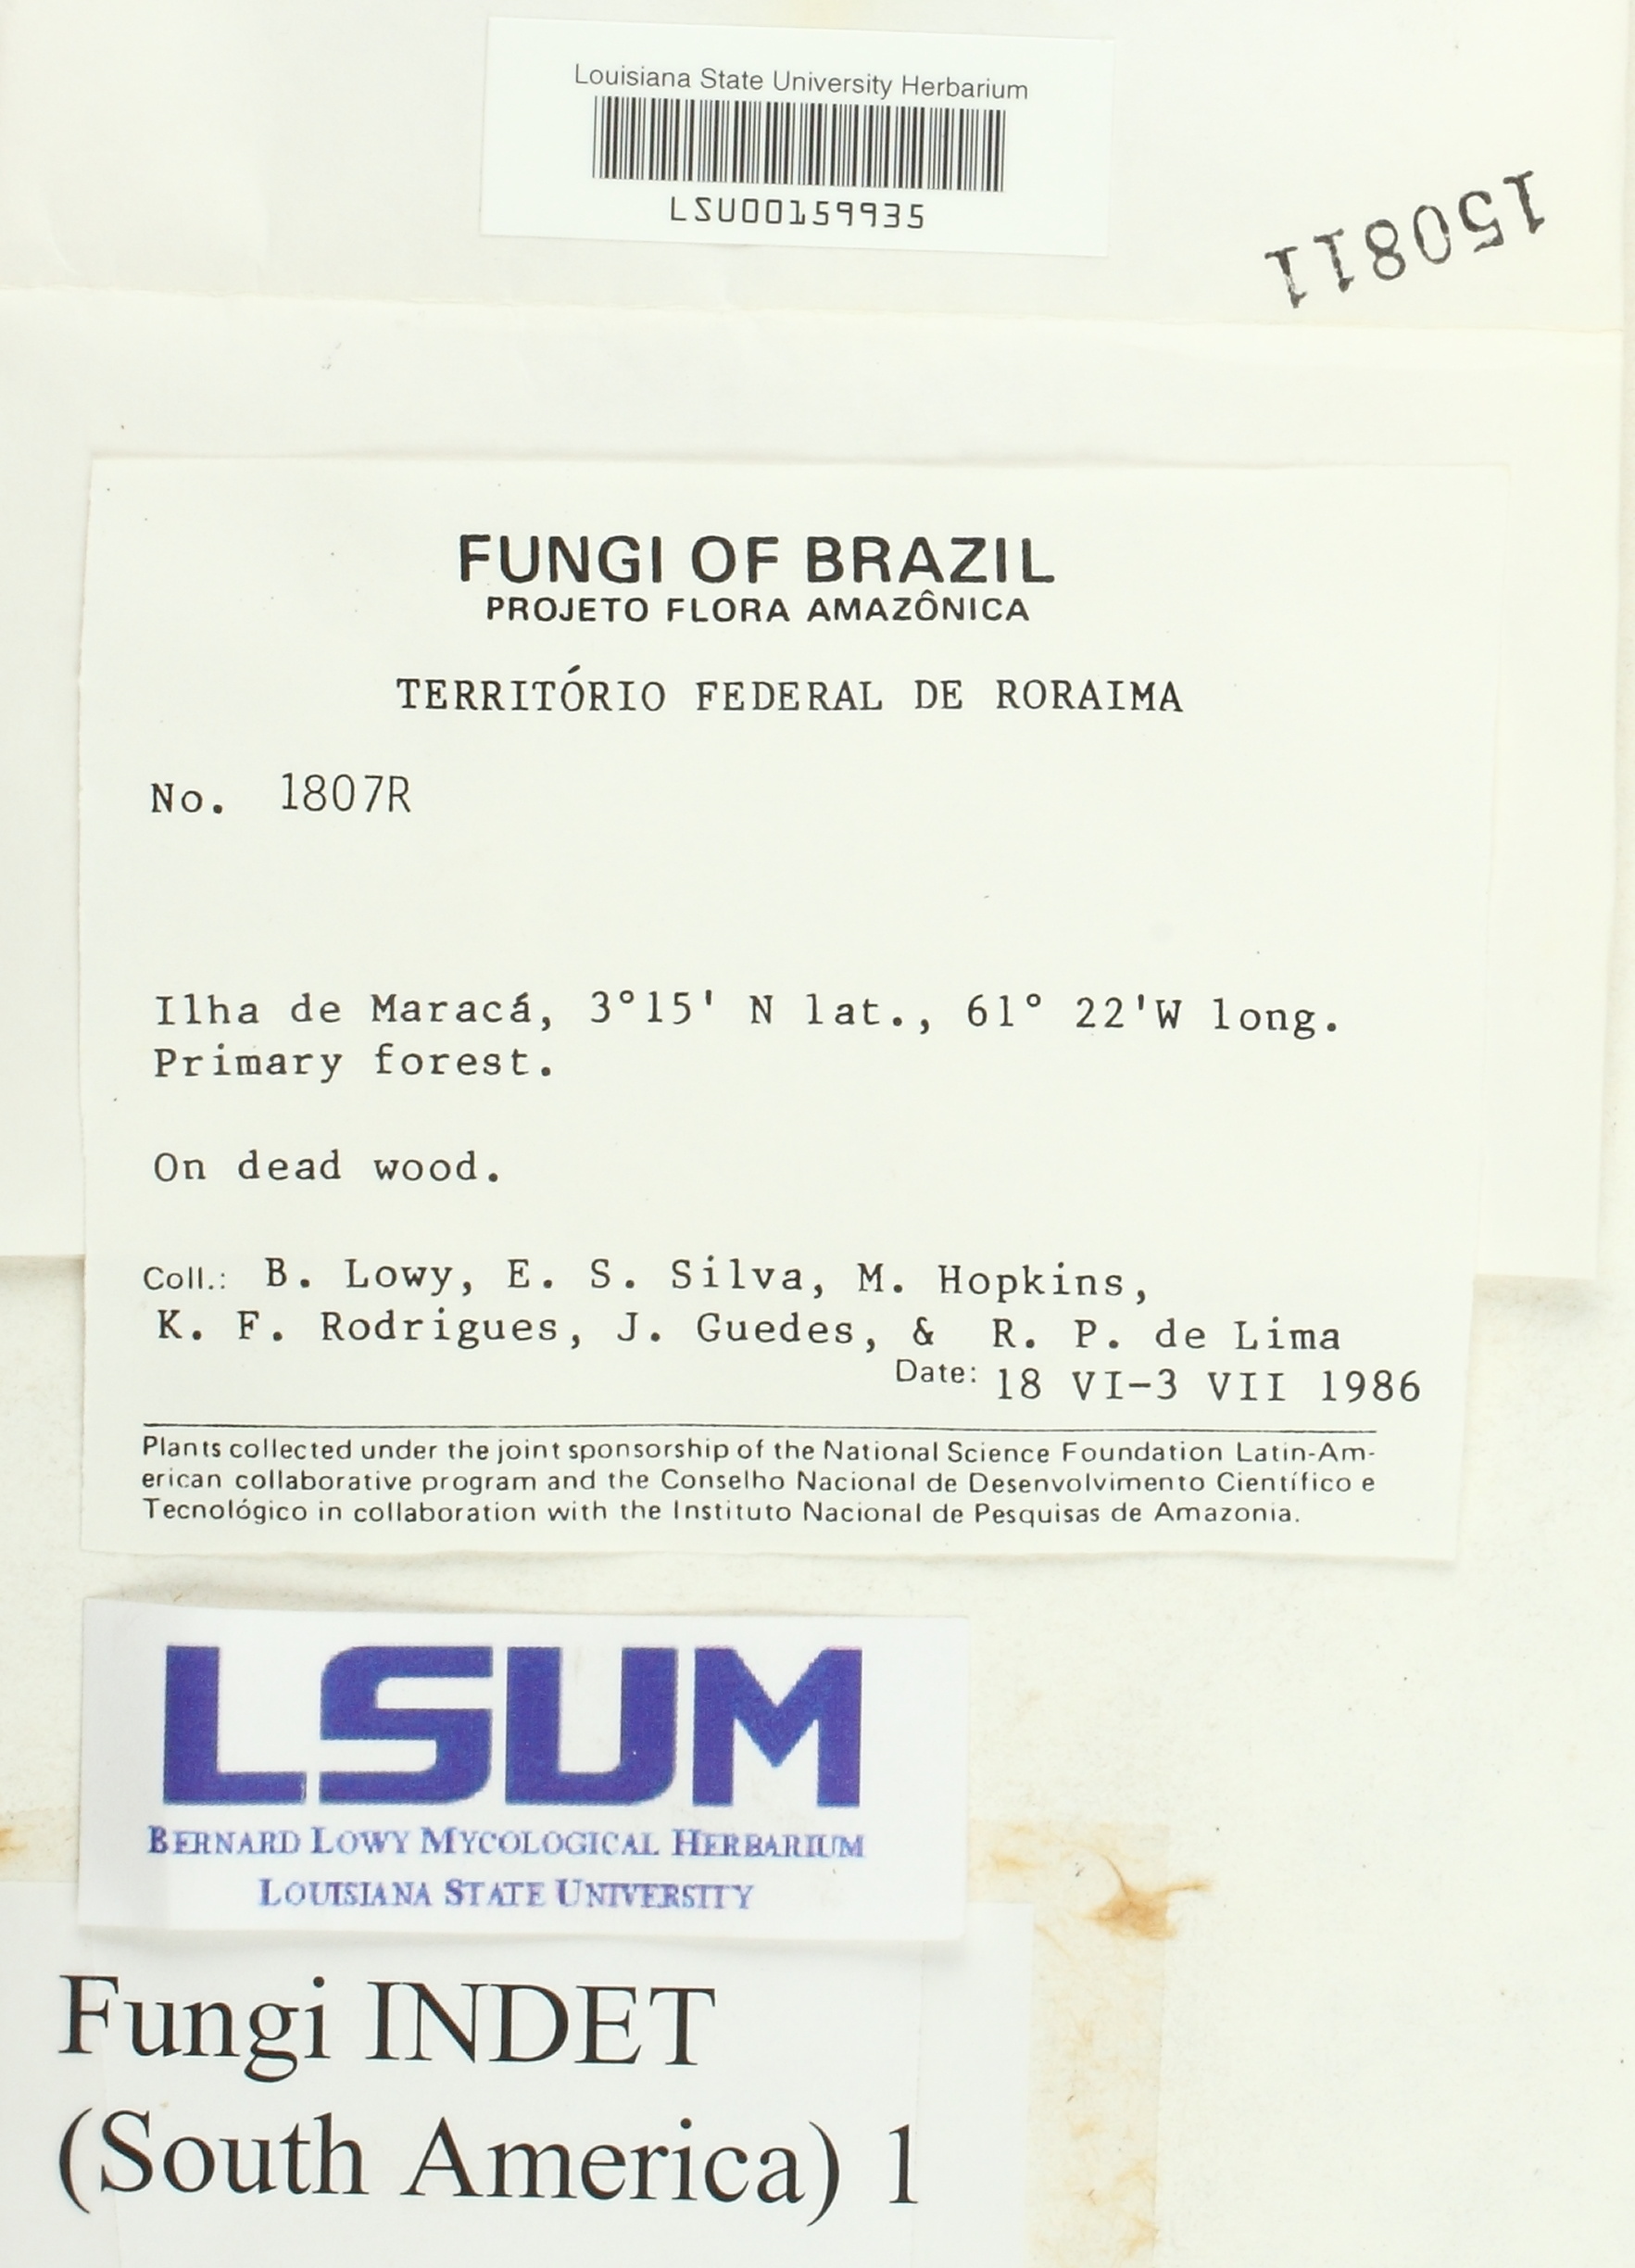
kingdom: Fungi
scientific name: Fungi
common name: Fungi
